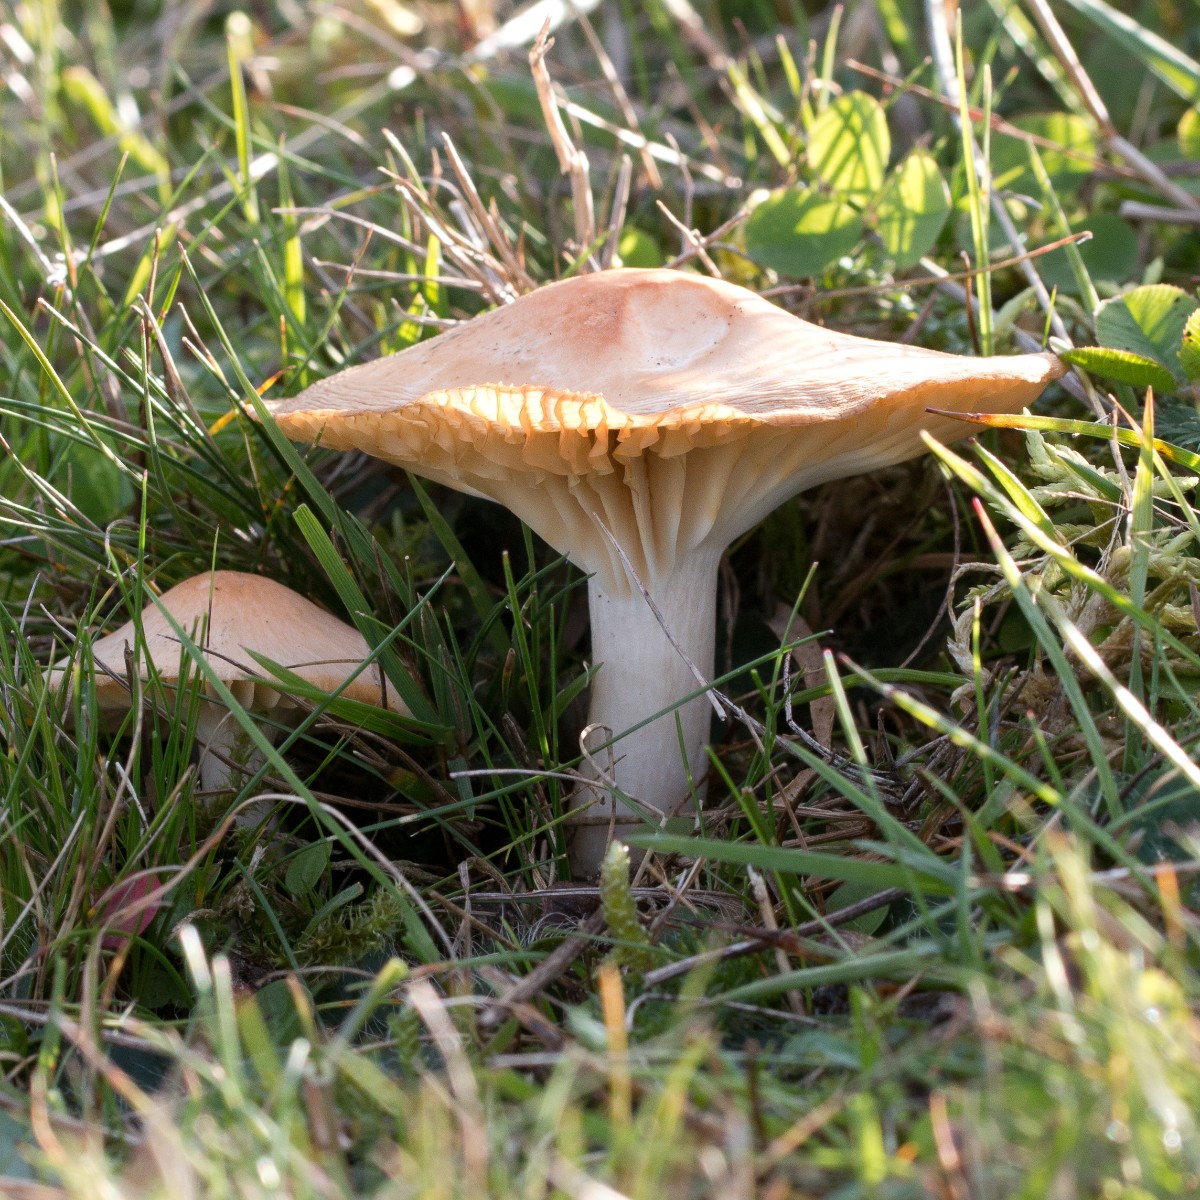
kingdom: Fungi
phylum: Basidiomycota
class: Agaricomycetes
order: Agaricales
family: Hygrophoraceae
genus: Cuphophyllus
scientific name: Cuphophyllus pratensis
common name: eng-vokshat
